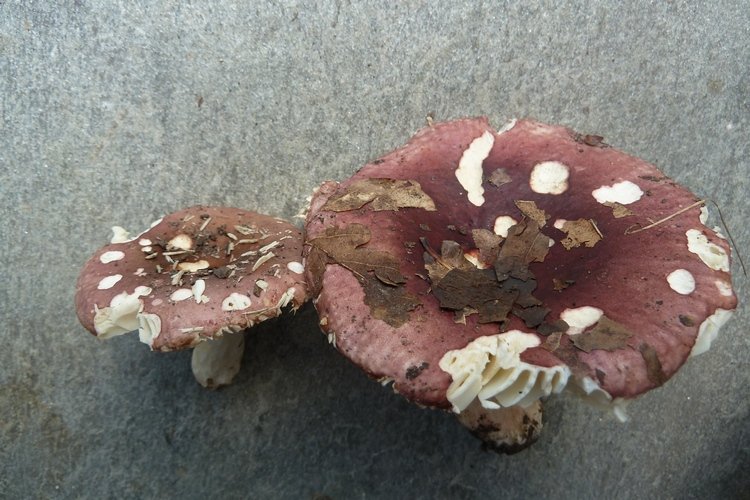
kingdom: Fungi
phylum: Basidiomycota
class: Agaricomycetes
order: Russulales
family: Russulaceae
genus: Russula
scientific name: Russula graveolens
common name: bugtet skørhat
